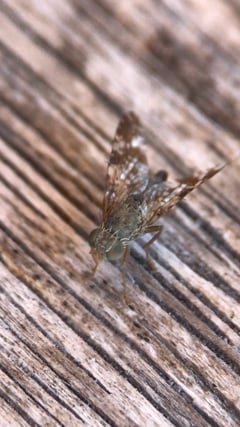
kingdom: Animalia
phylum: Arthropoda
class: Insecta
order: Diptera
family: Tephritidae
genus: Tephritis
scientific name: Tephritis vespertina
